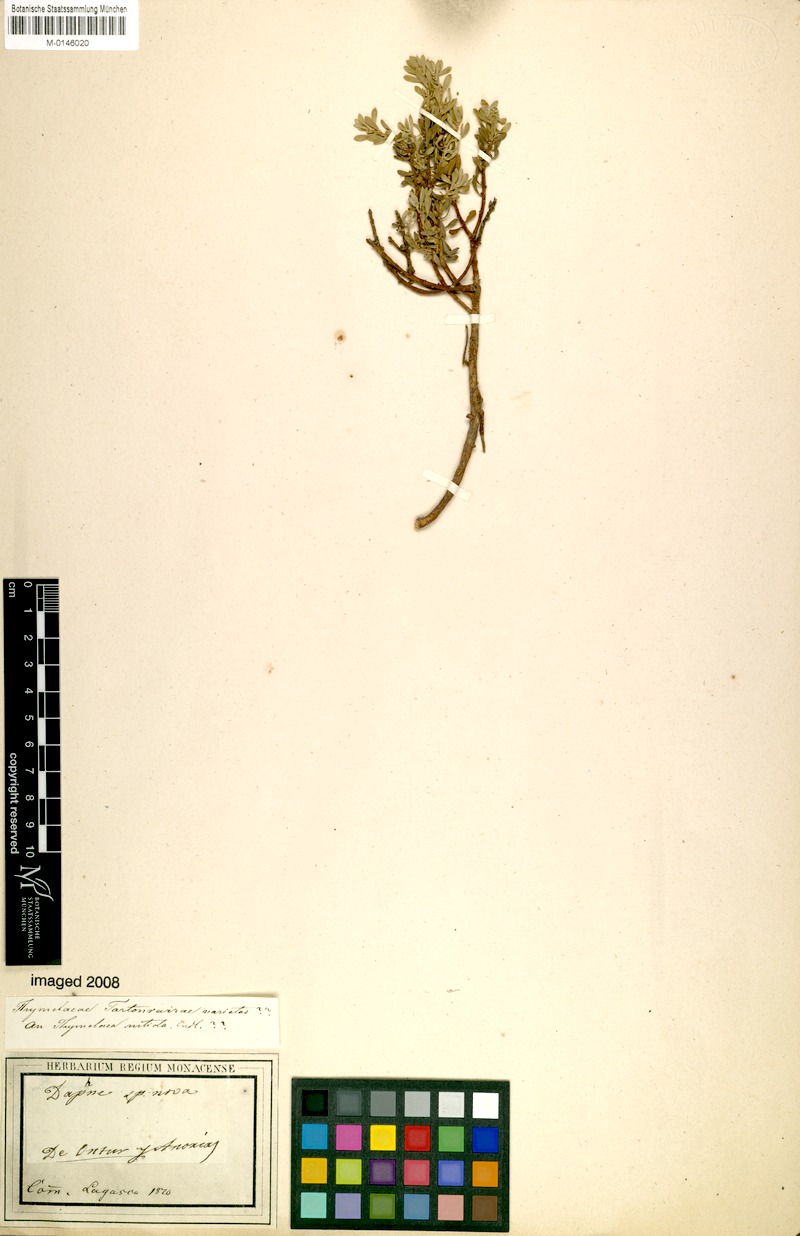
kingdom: Plantae
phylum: Tracheophyta
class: Magnoliopsida
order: Malvales
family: Thymelaeaceae
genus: Thymelaea
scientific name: Thymelaea tartonraira
